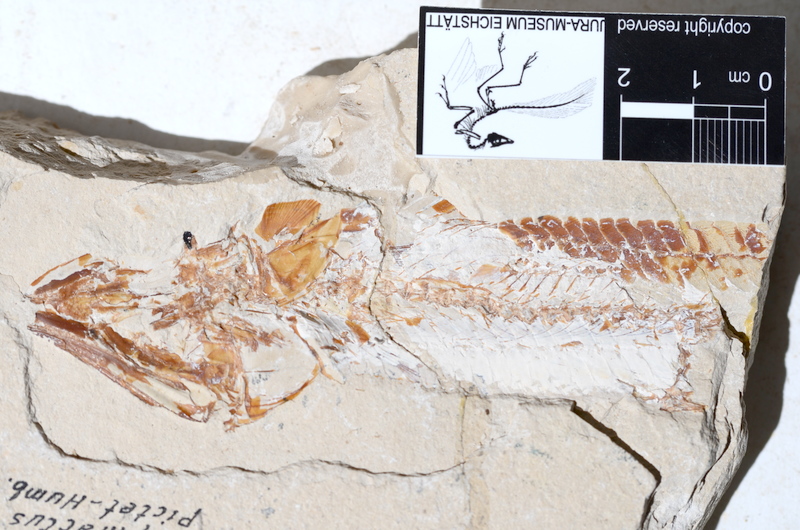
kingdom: Animalia
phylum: Chordata
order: Aulopiformes
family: Aspidopleuridae
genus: Aspidopleurus
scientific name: Aspidopleurus cataphractus
